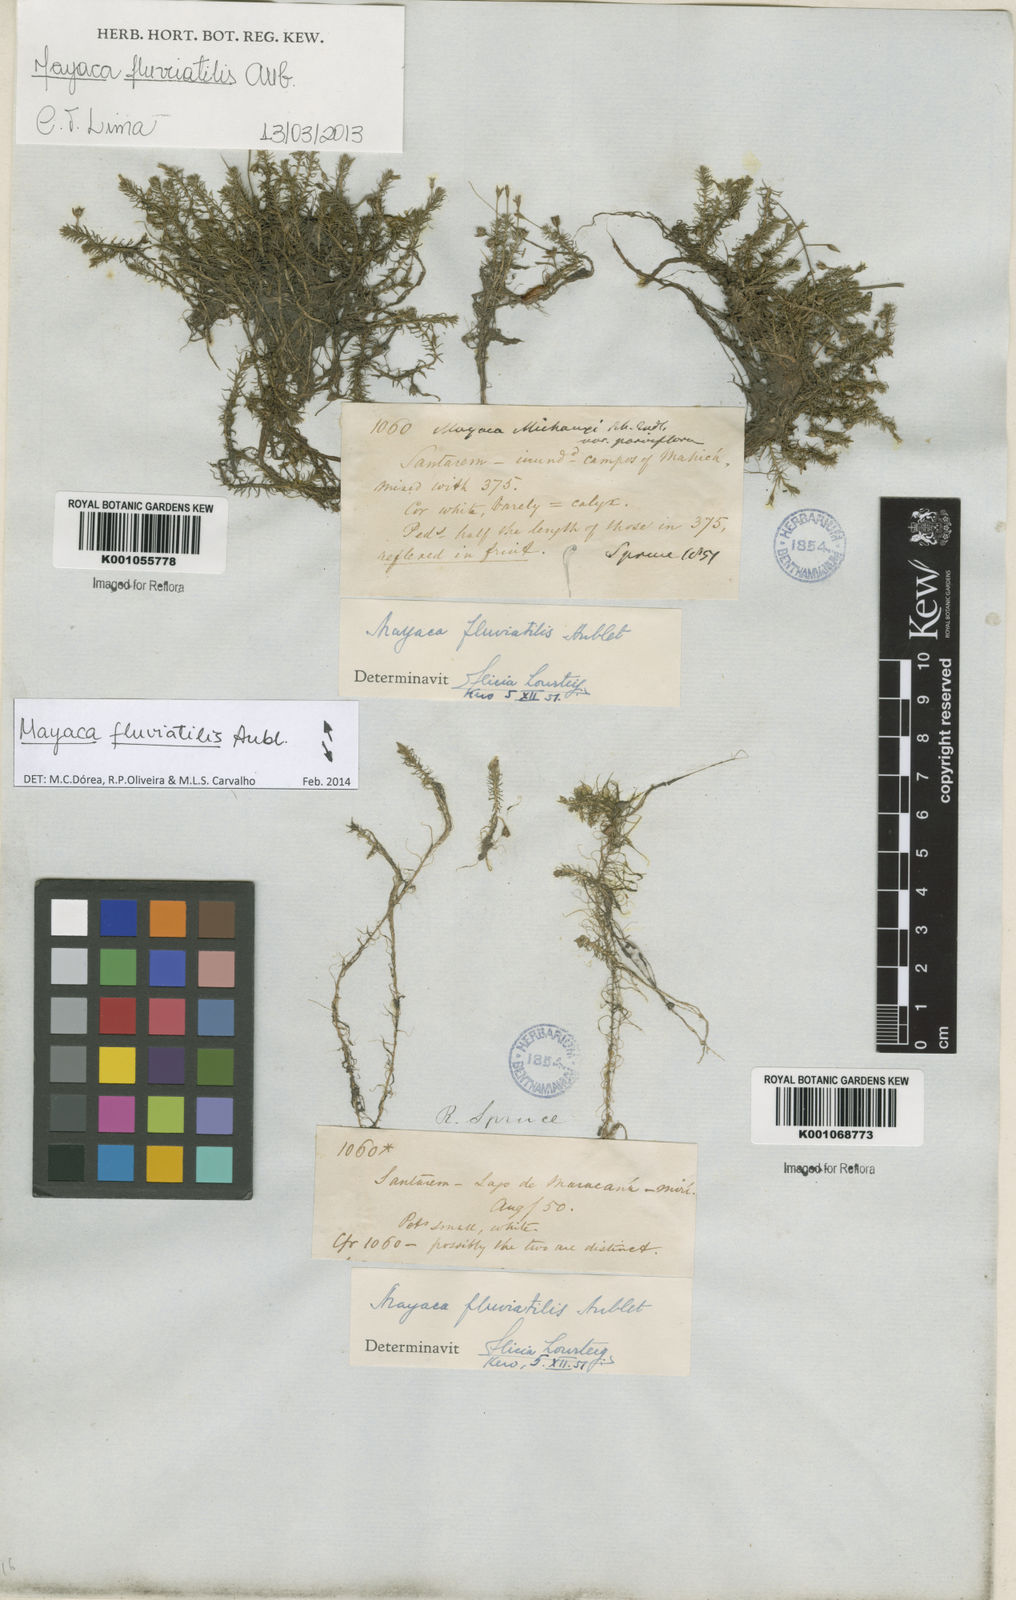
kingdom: Plantae
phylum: Tracheophyta
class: Liliopsida
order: Poales
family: Mayacaceae
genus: Mayaca
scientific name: Mayaca
